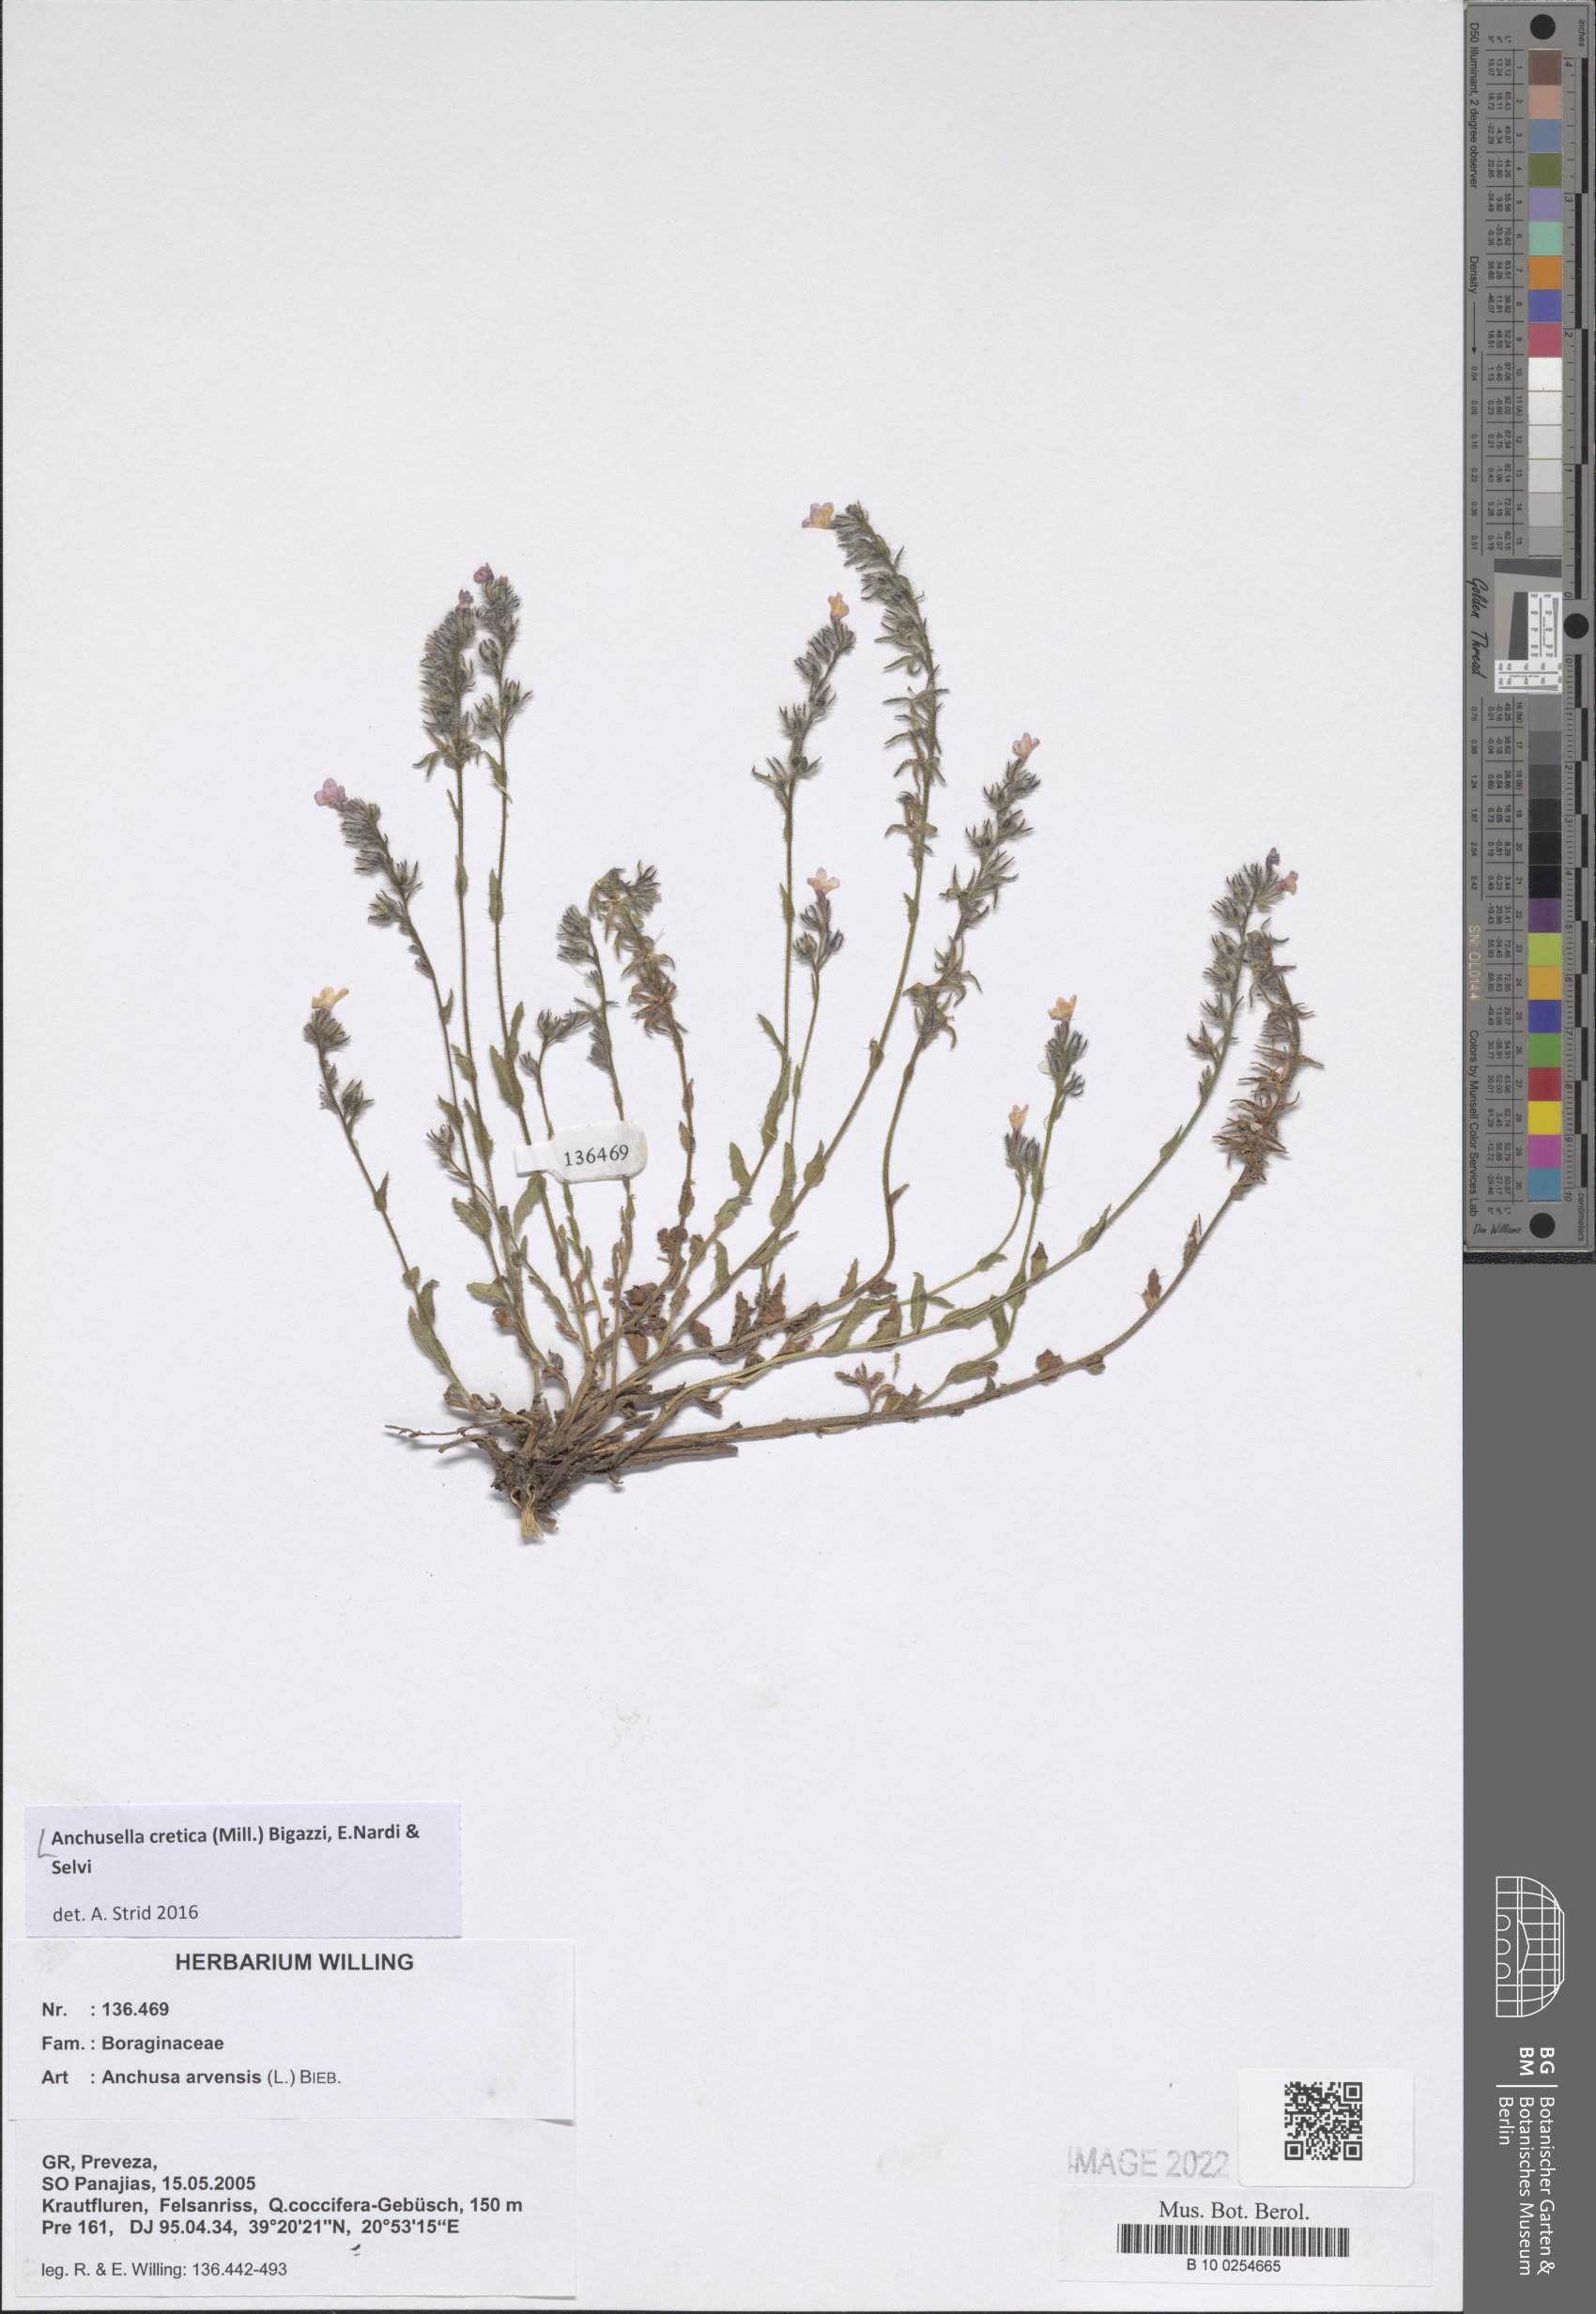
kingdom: Plantae
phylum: Tracheophyta
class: Magnoliopsida
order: Boraginales
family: Boraginaceae
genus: Anchusella
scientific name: Anchusella cretica
